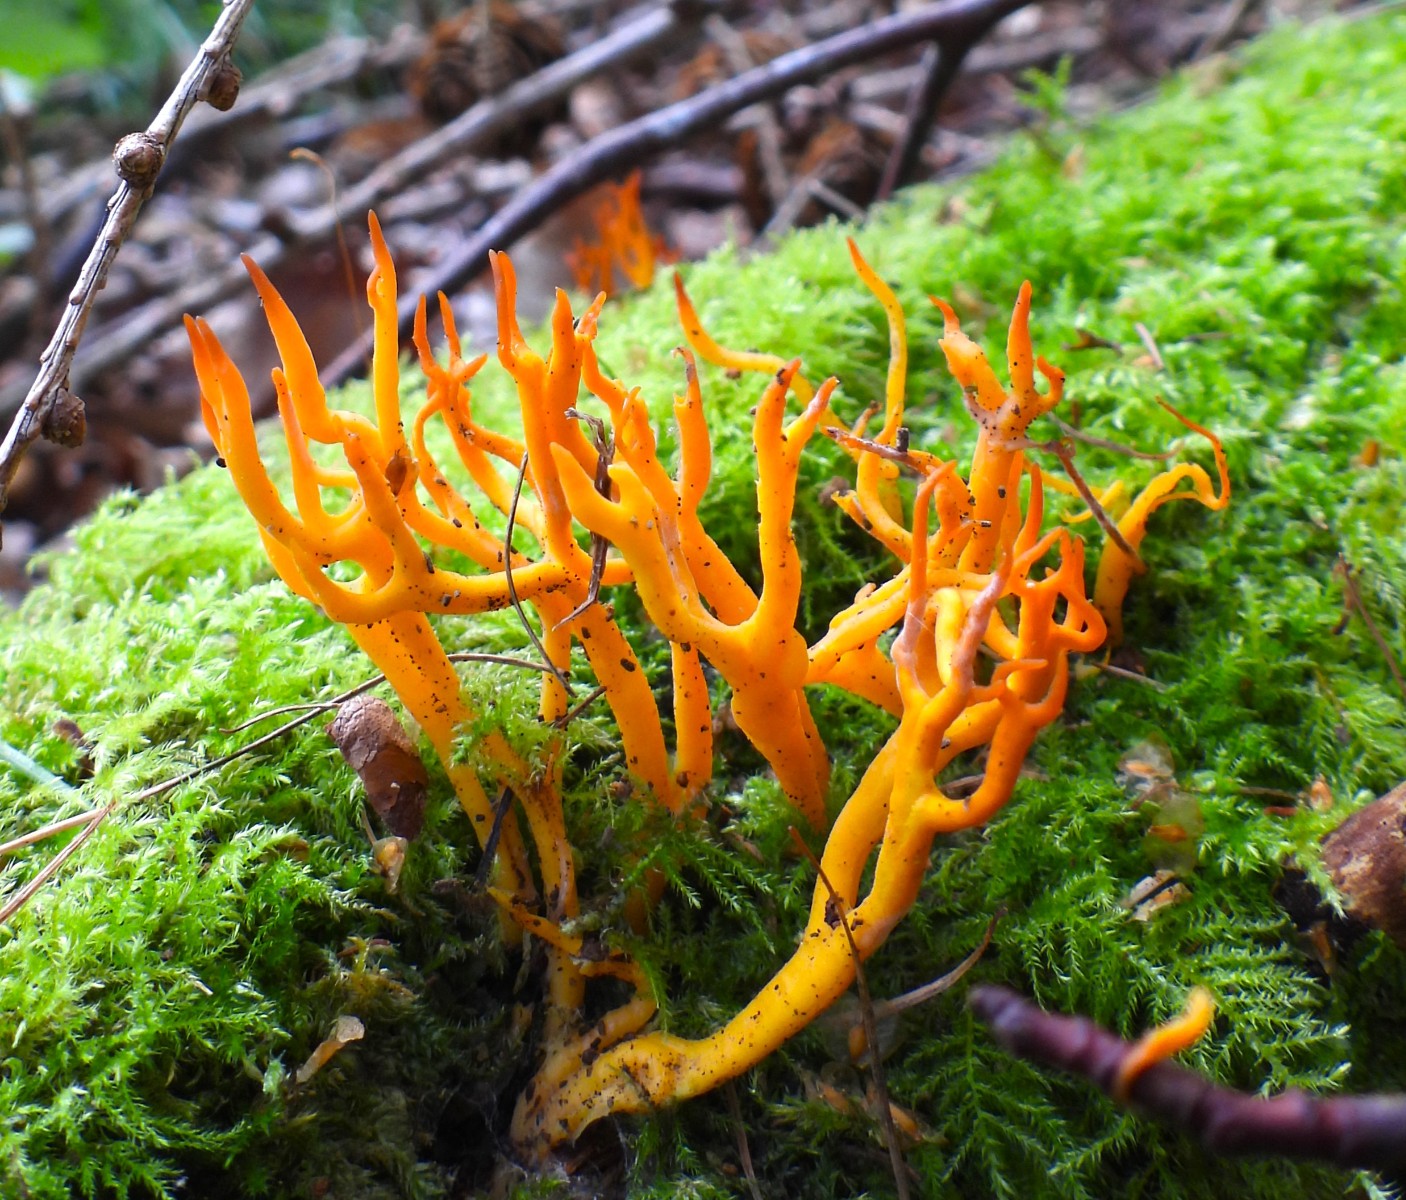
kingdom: Fungi
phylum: Basidiomycota
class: Dacrymycetes
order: Dacrymycetales
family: Dacrymycetaceae
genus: Calocera
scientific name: Calocera viscosa
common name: almindelig guldgaffel
